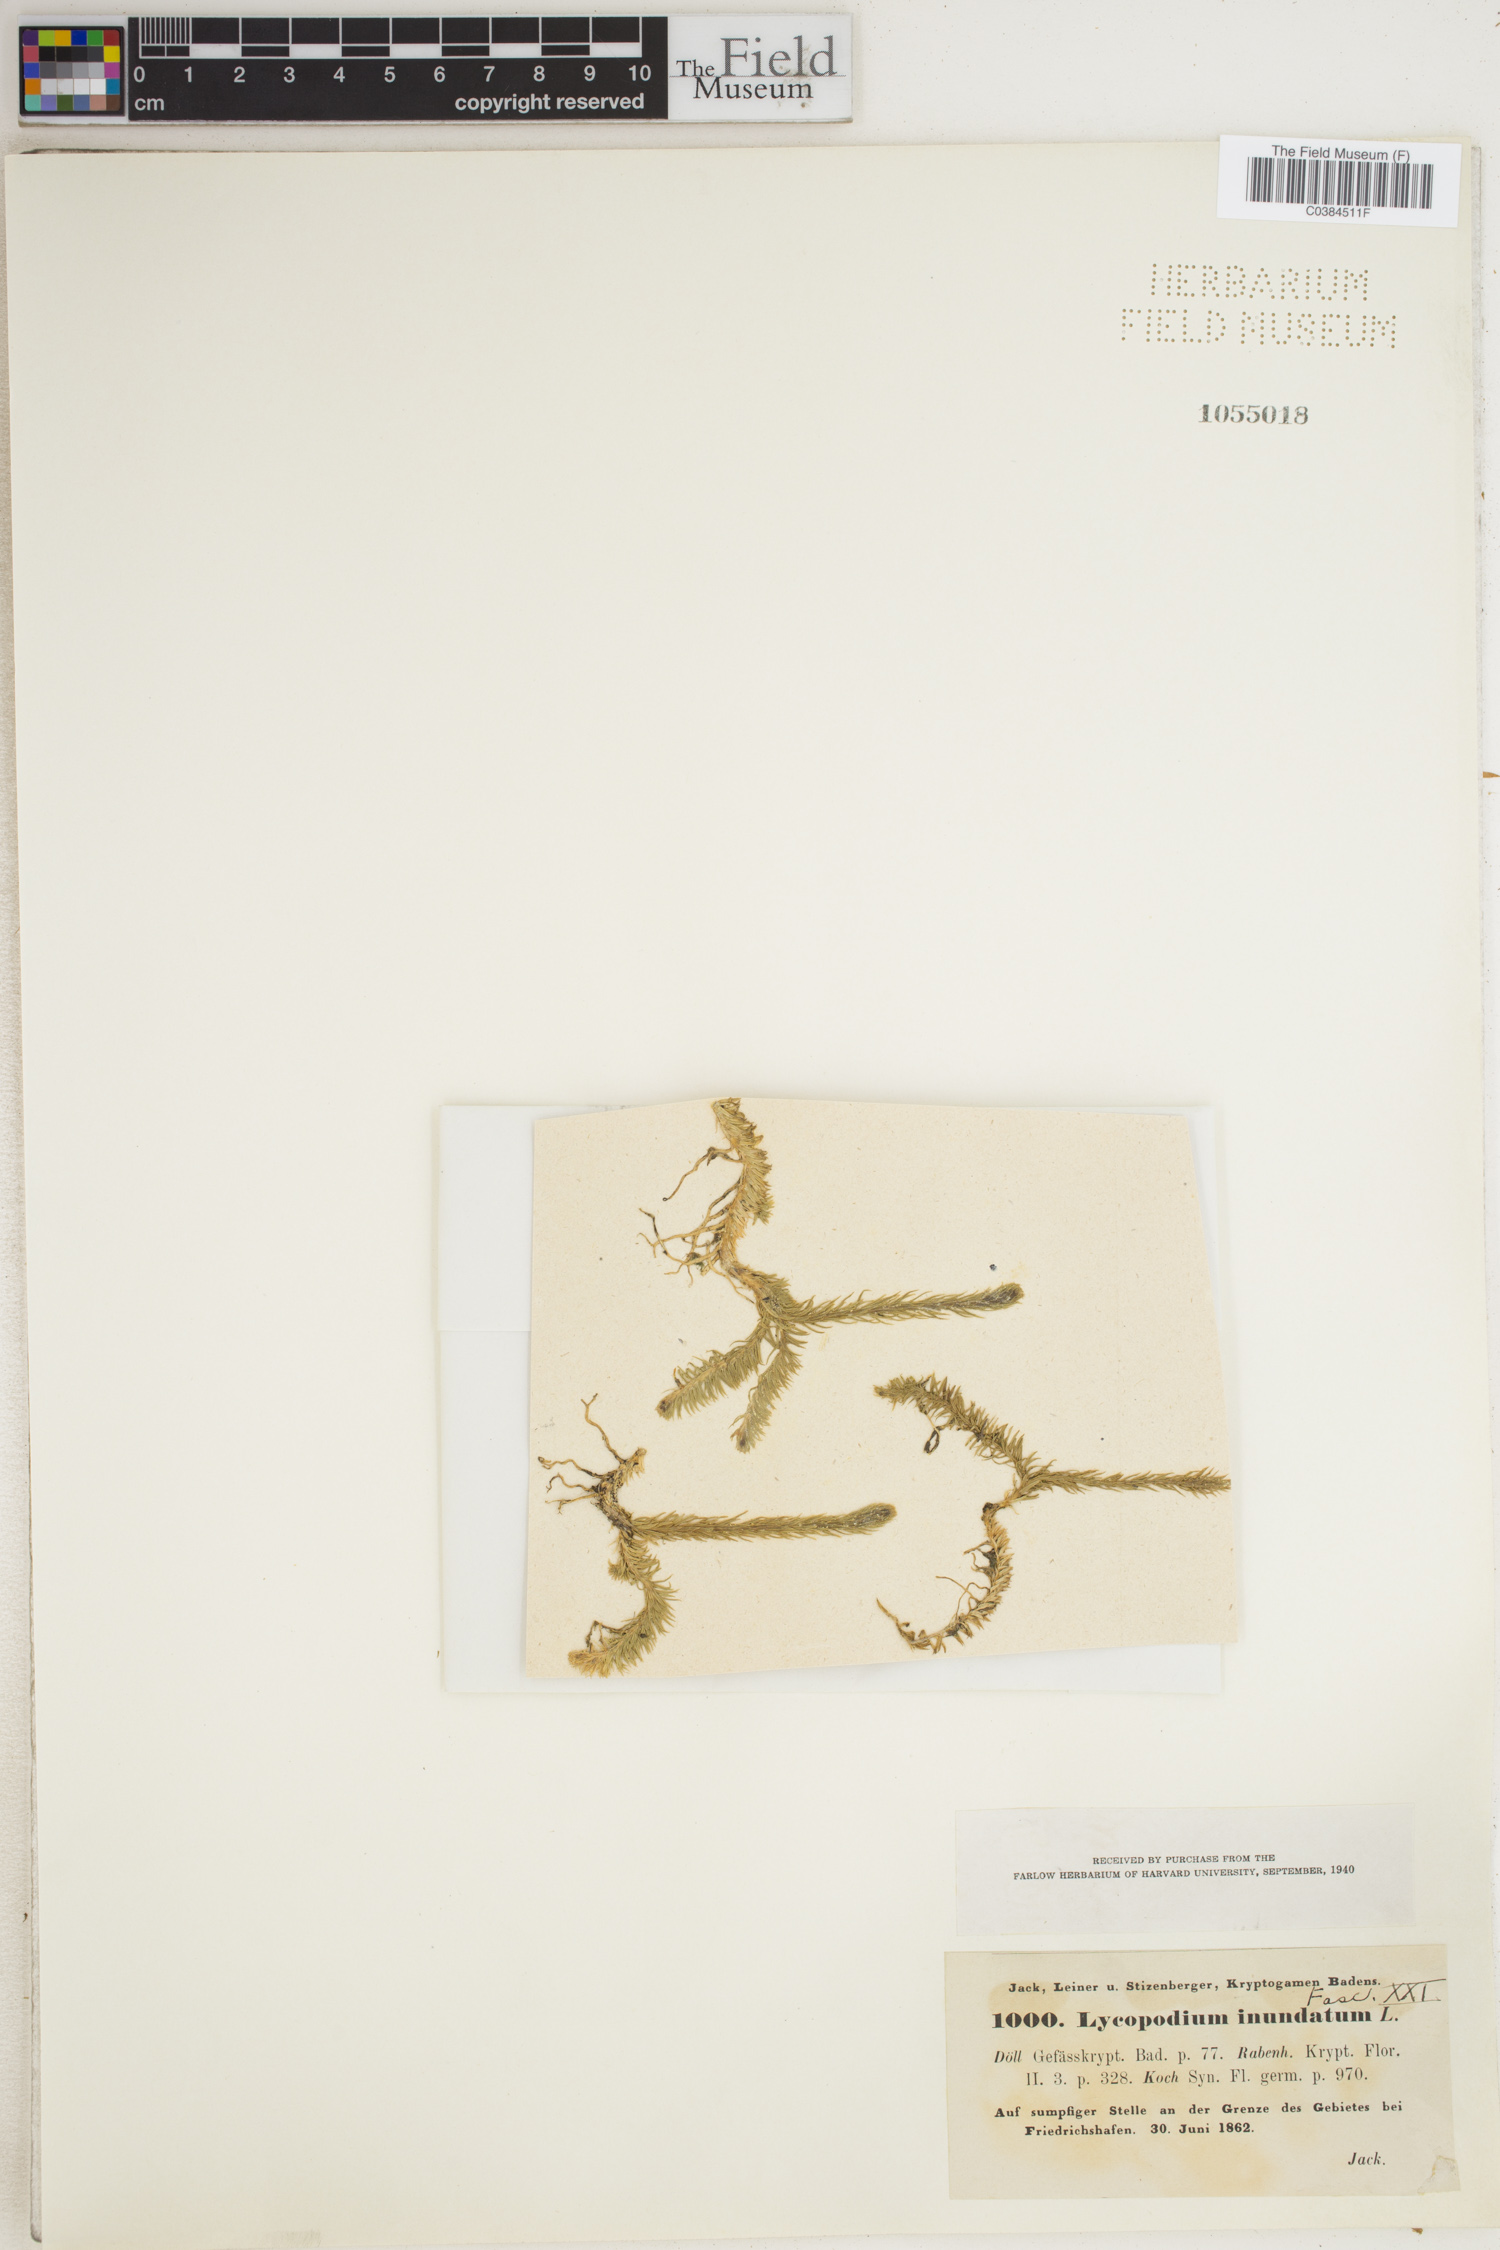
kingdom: Plantae
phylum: Tracheophyta
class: Lycopodiopsida
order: Lycopodiales
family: Lycopodiaceae
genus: Lycopodiella
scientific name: Lycopodiella inundata
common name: Marsh clubmoss
